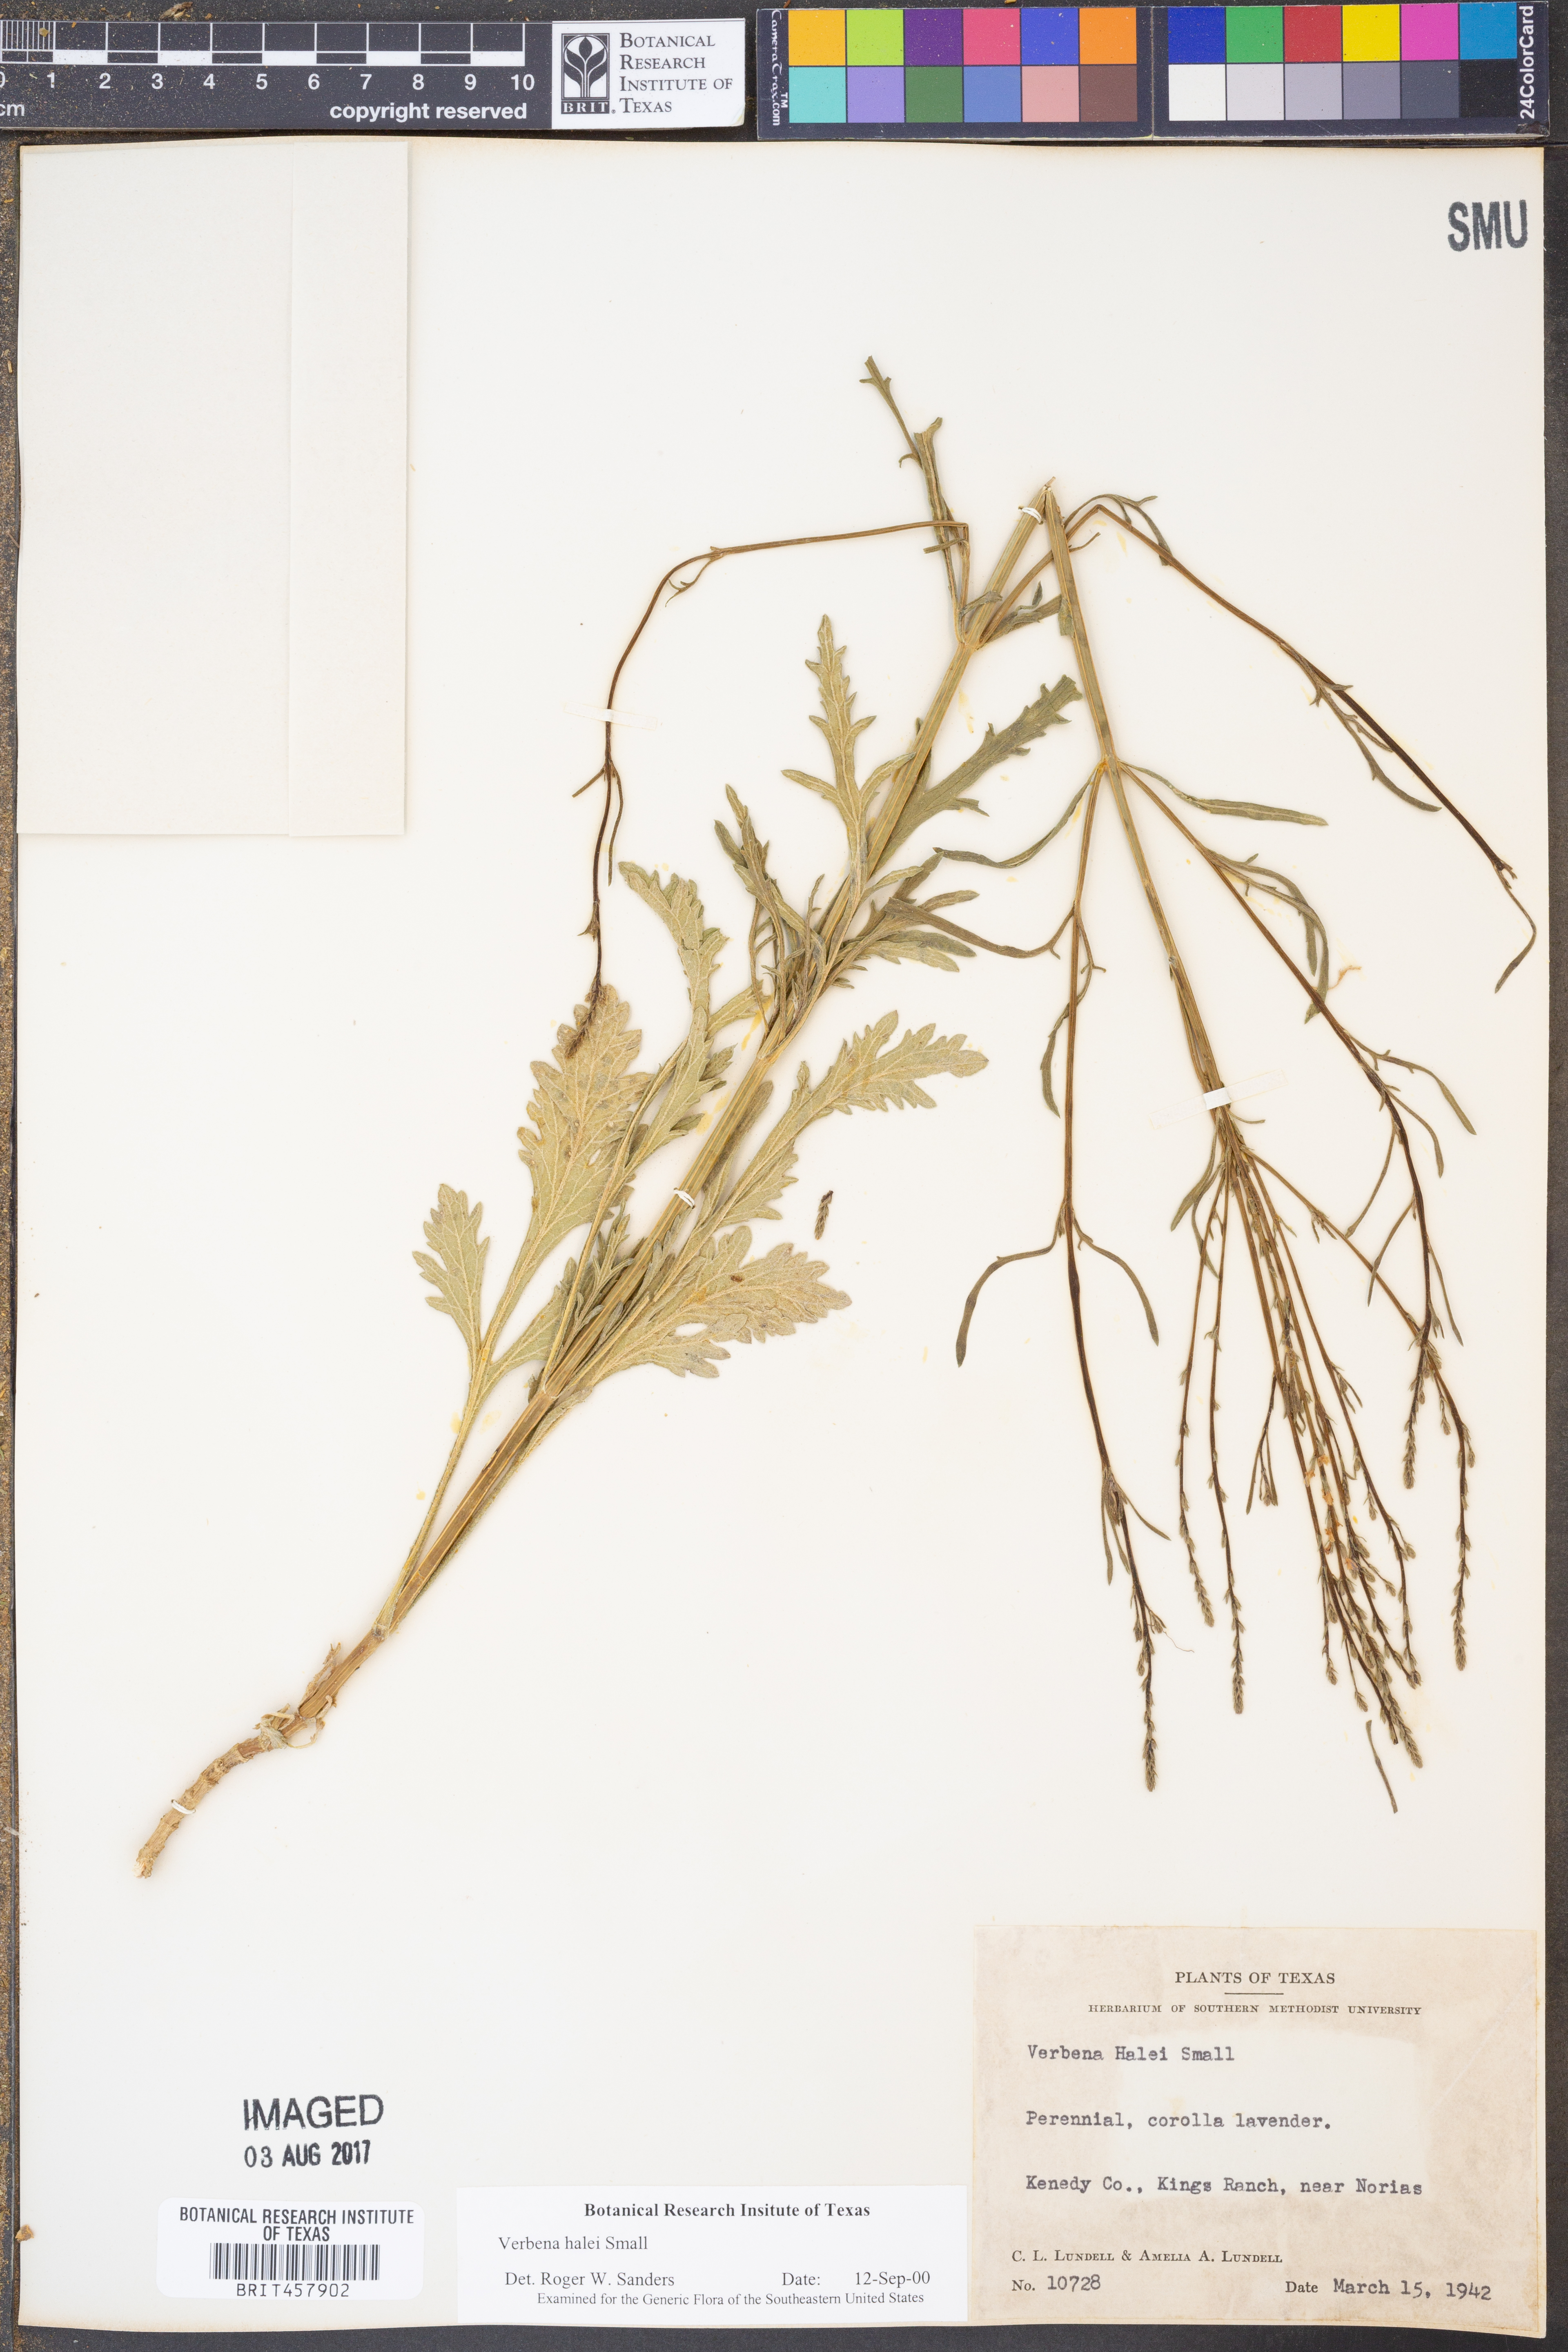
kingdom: Plantae
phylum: Tracheophyta
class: Magnoliopsida
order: Lamiales
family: Verbenaceae
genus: Verbena
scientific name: Verbena halei
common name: Texas vervain
